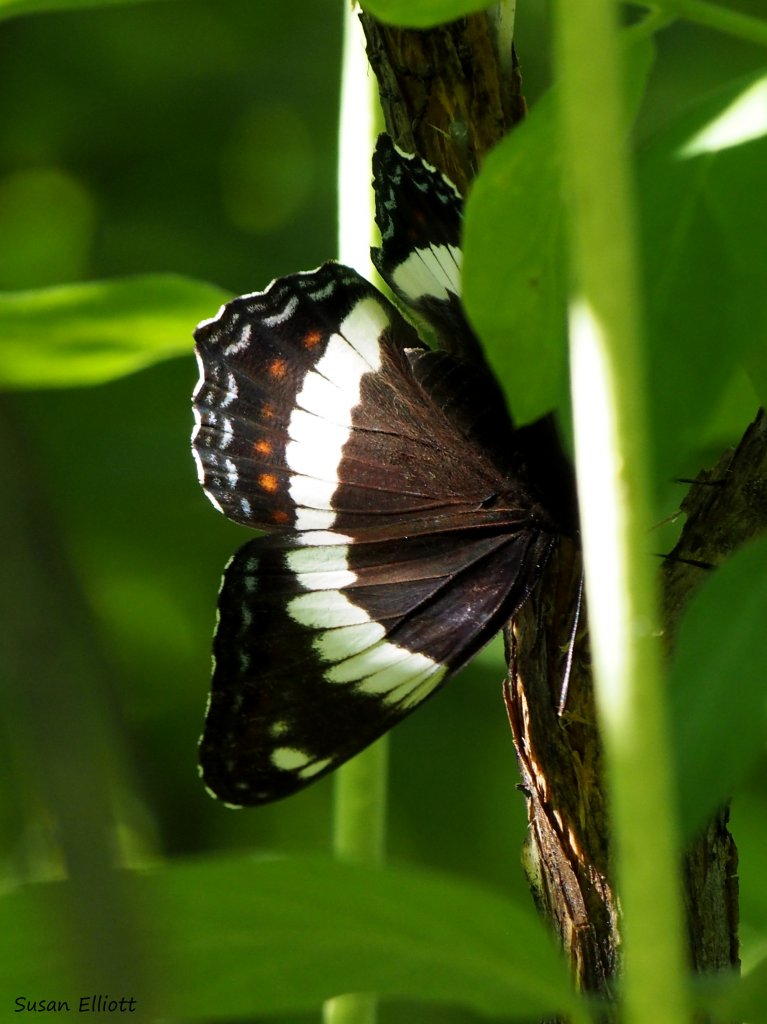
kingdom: Animalia
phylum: Arthropoda
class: Insecta
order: Lepidoptera
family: Nymphalidae
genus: Limenitis
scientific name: Limenitis arthemis
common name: Red-spotted Admiral
